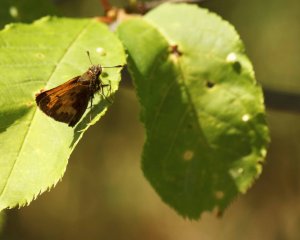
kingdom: Animalia
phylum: Arthropoda
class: Insecta
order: Lepidoptera
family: Hesperiidae
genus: Lon
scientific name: Lon hobomok
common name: Hobomok Skipper
